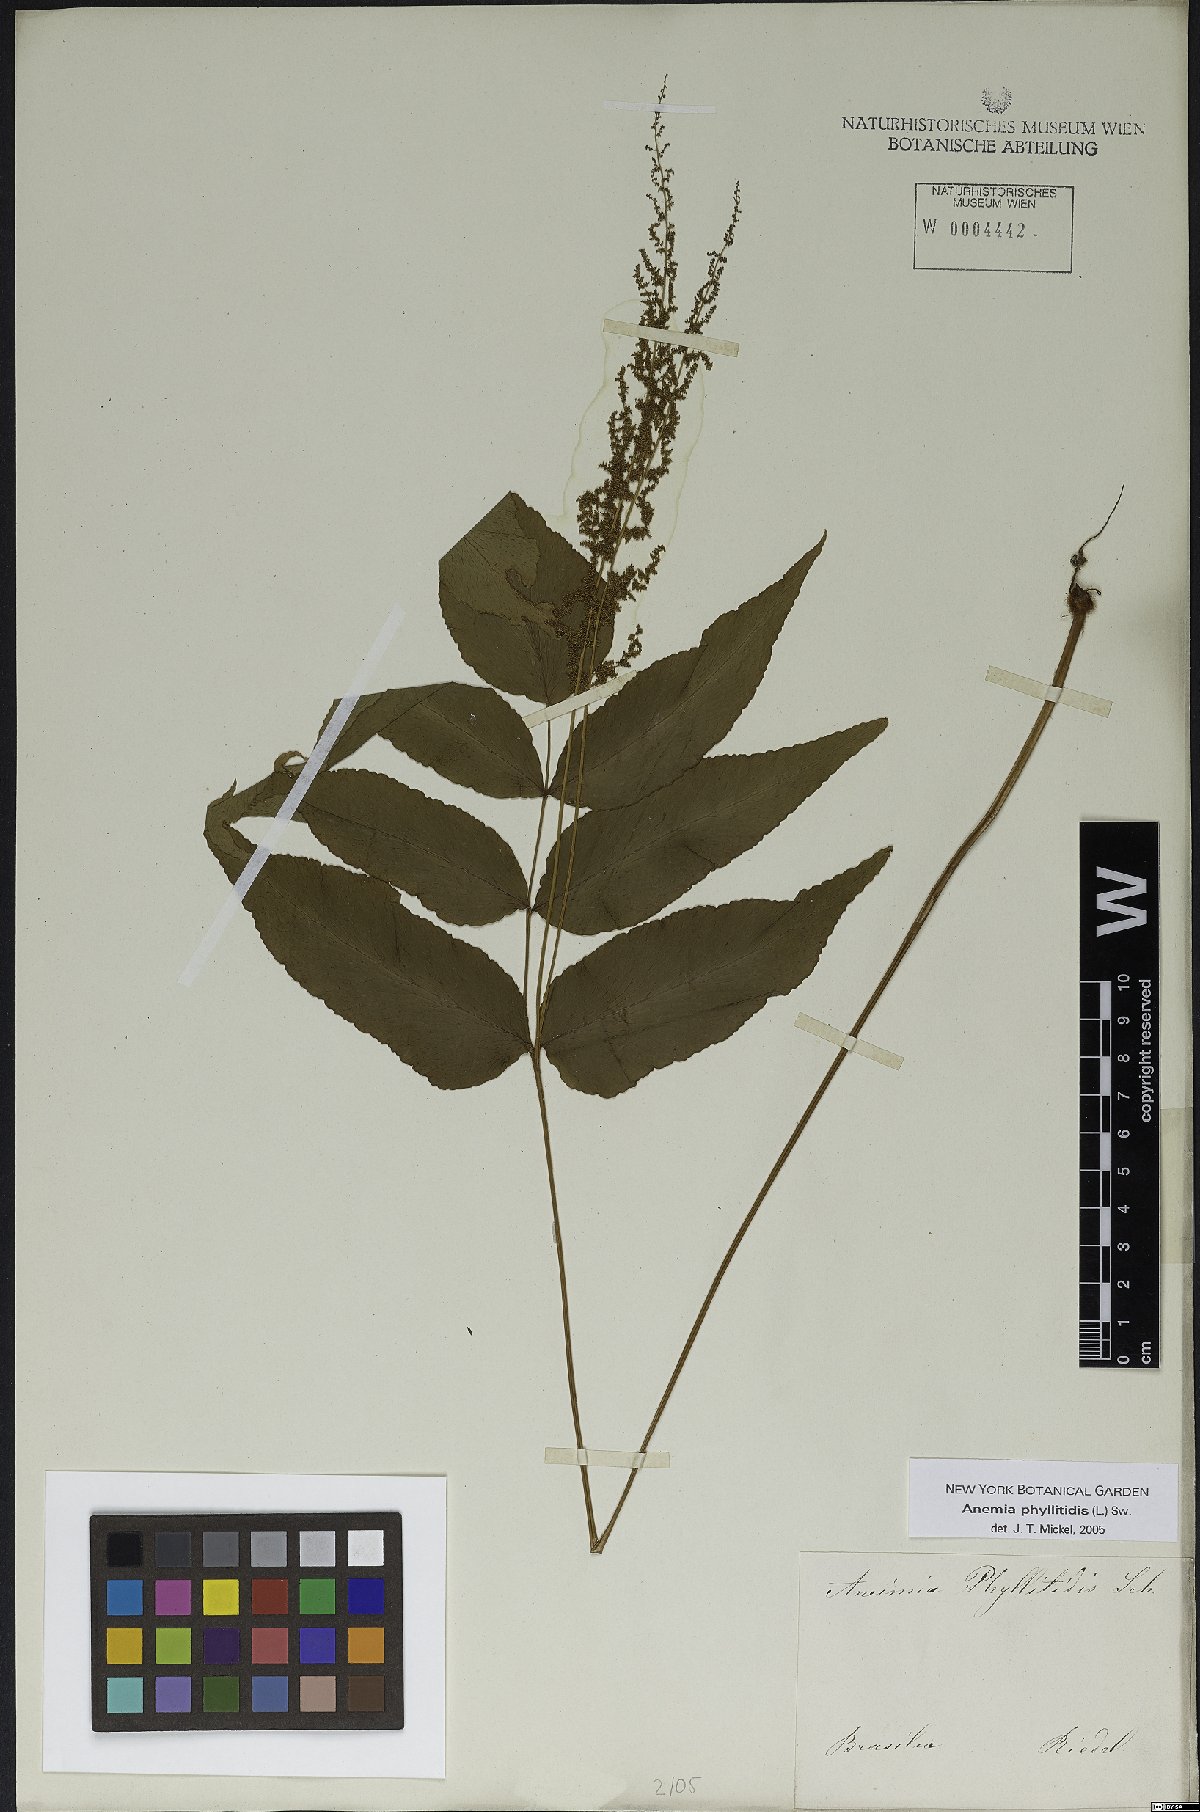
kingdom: Plantae
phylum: Tracheophyta
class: Polypodiopsida
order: Schizaeales
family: Anemiaceae
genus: Anemia
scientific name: Anemia phyllitidis
